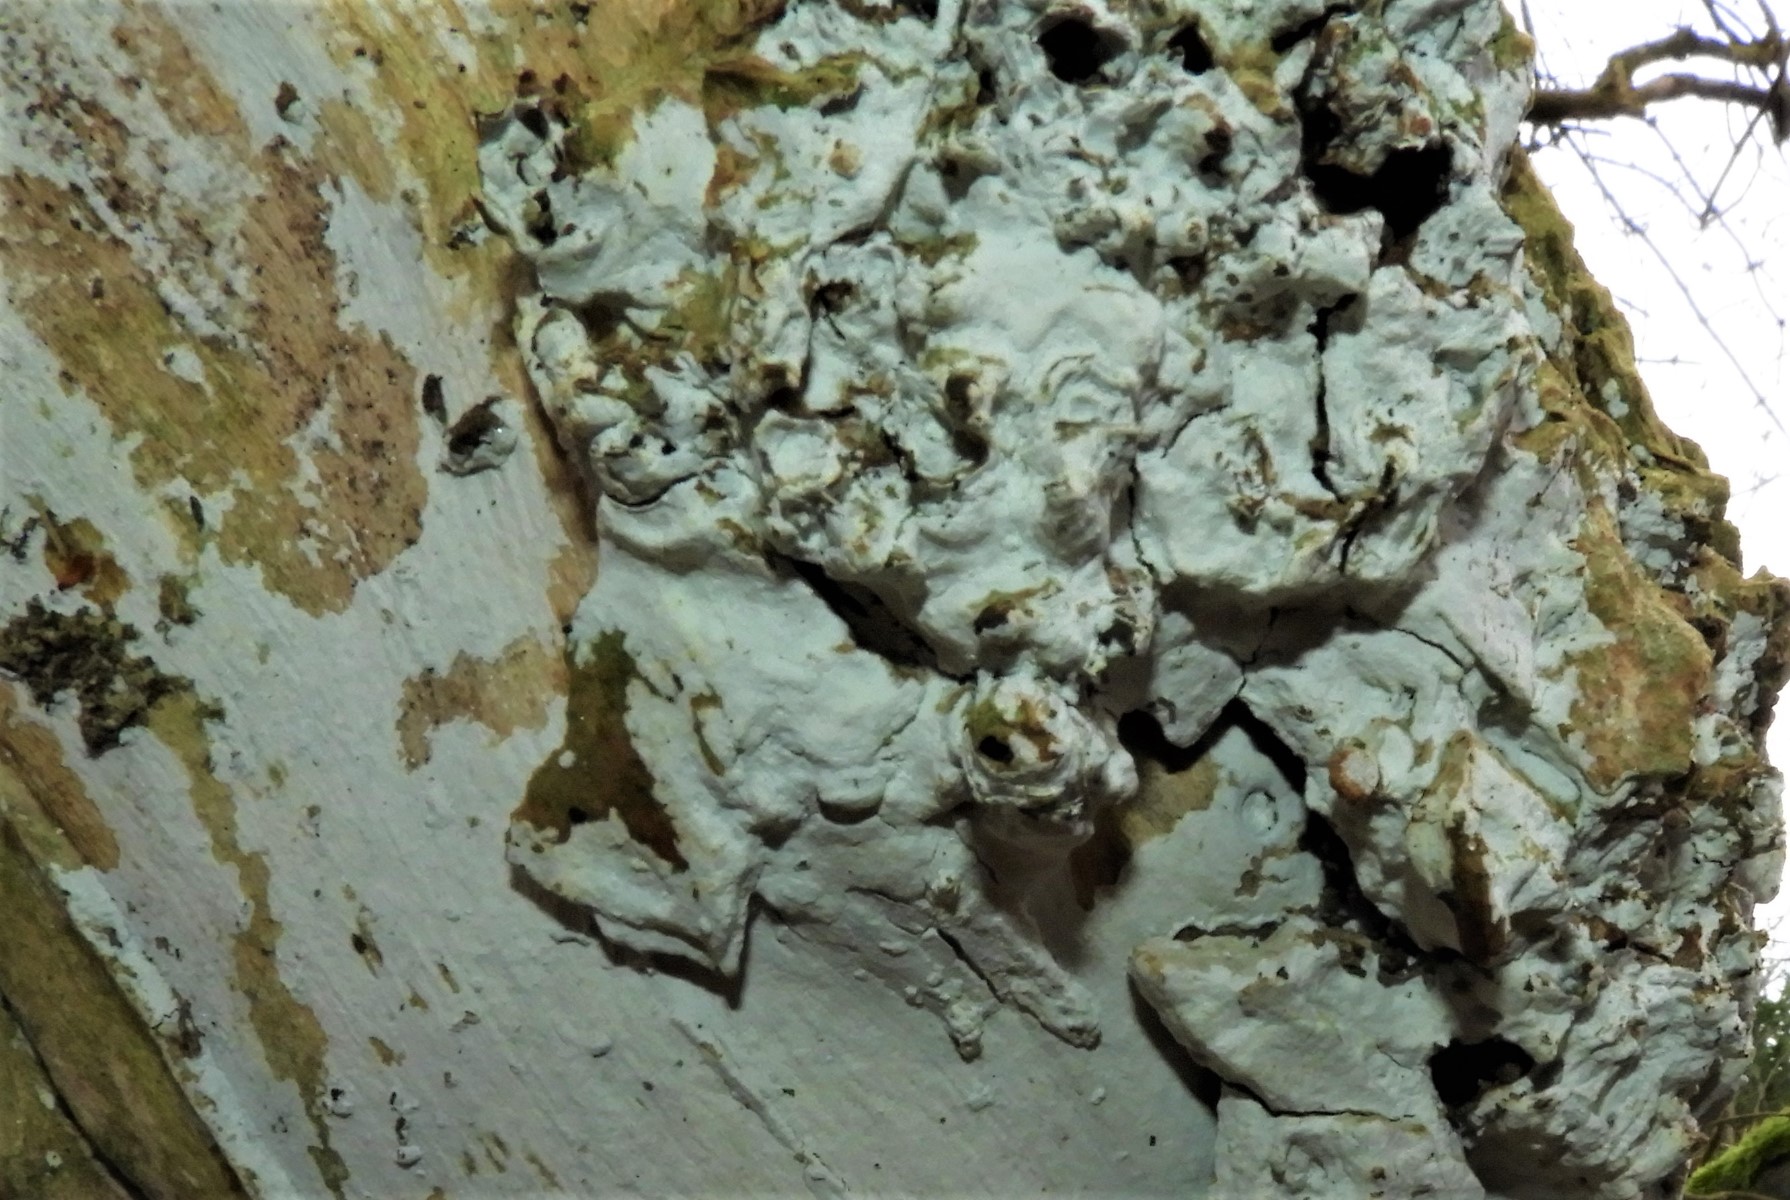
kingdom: Fungi
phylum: Basidiomycota
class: Agaricomycetes
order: Corticiales
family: Corticiaceae
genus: Lyomyces
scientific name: Lyomyces sambuci
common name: almindelig hyldehinde
